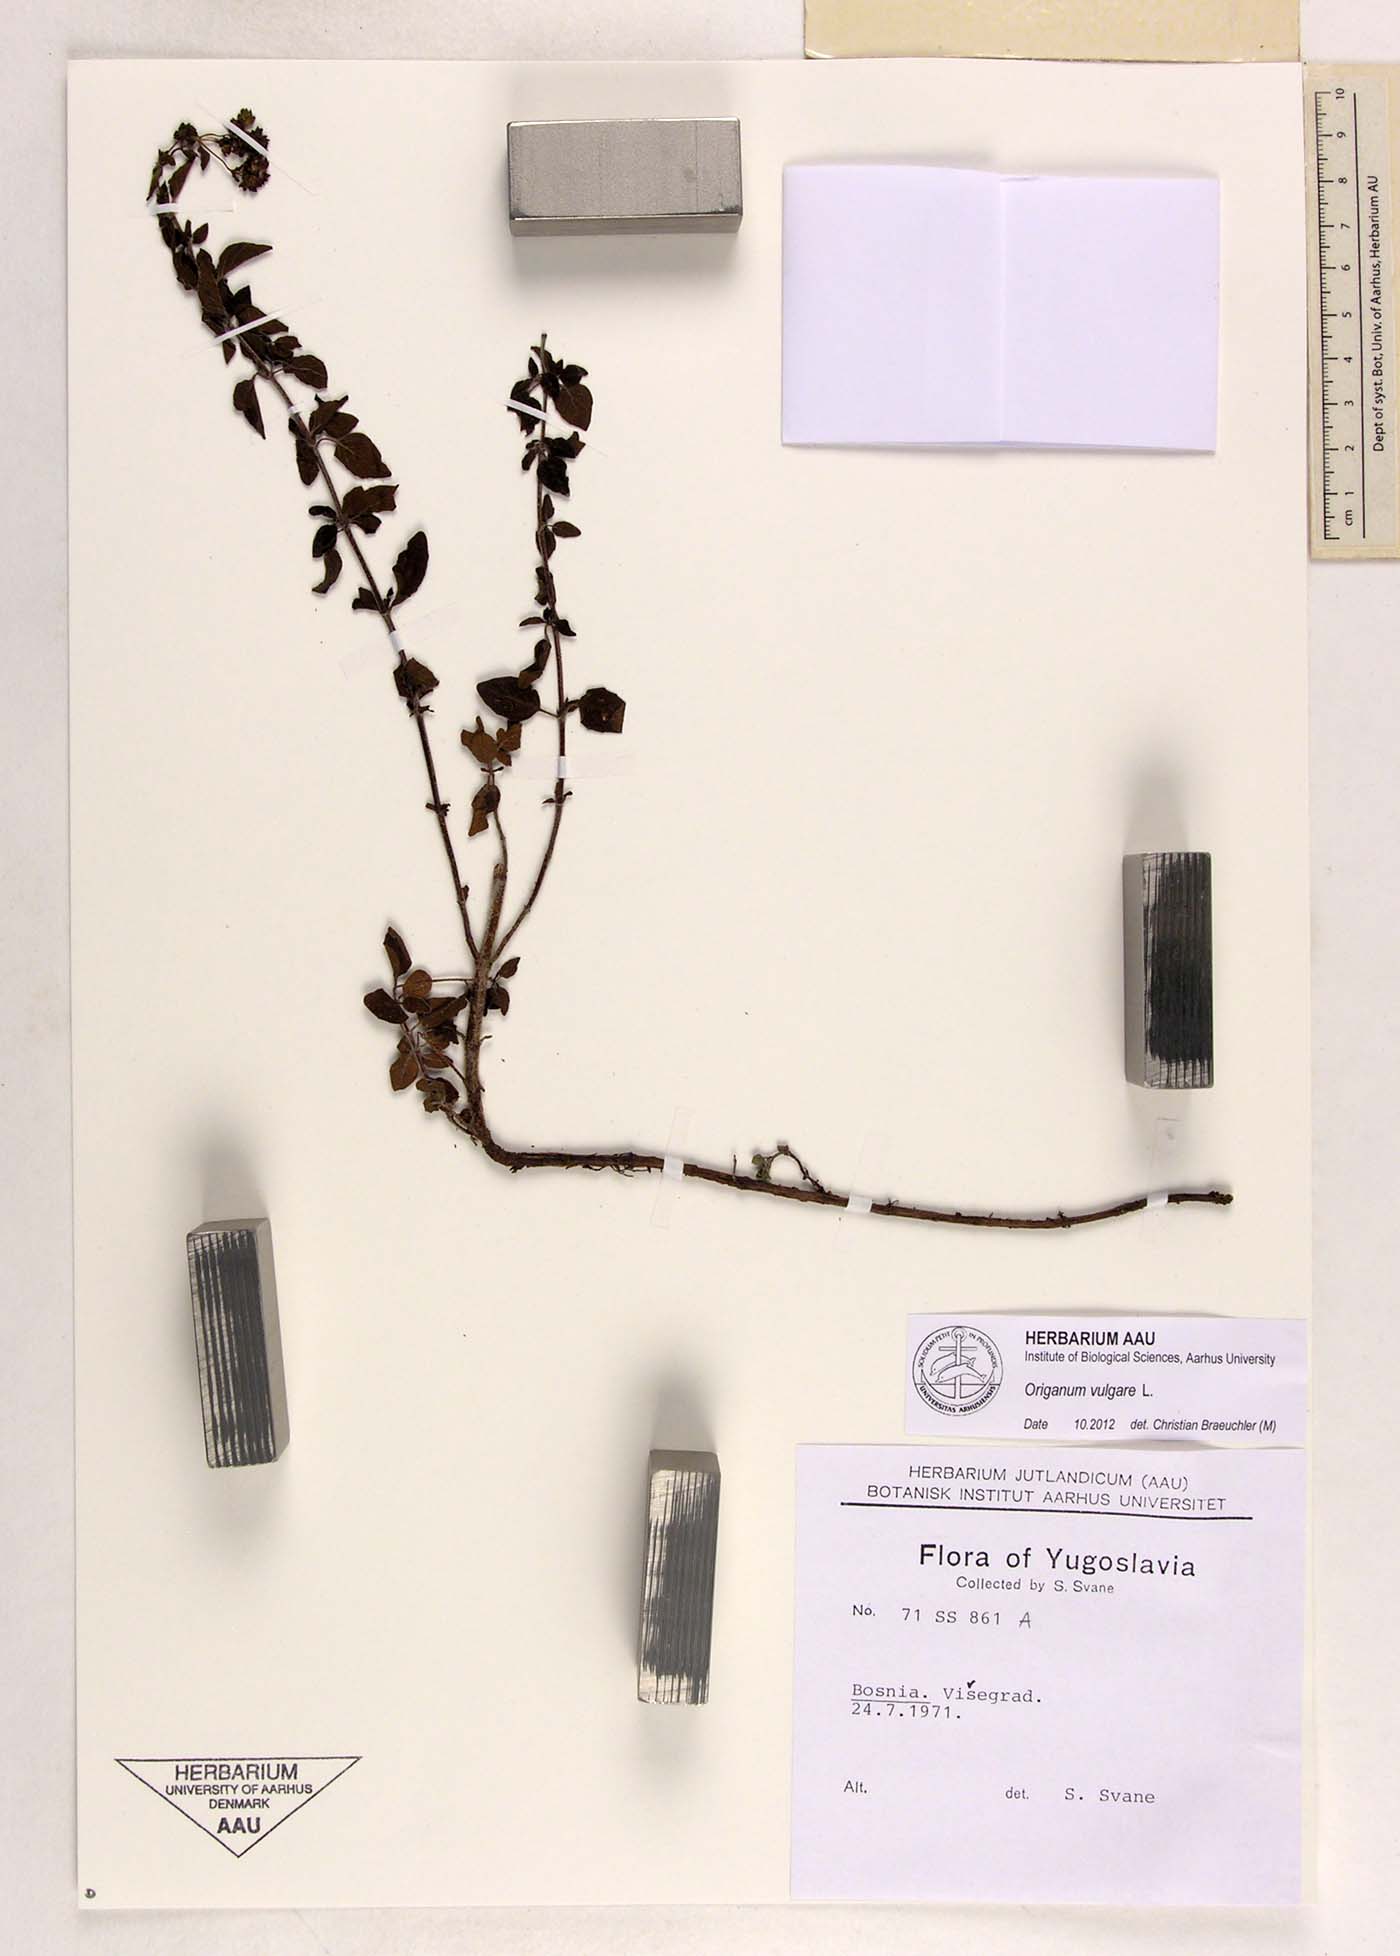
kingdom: Plantae
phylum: Tracheophyta
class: Magnoliopsida
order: Lamiales
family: Lamiaceae
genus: Origanum
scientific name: Origanum vulgare
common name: Wild marjoram
